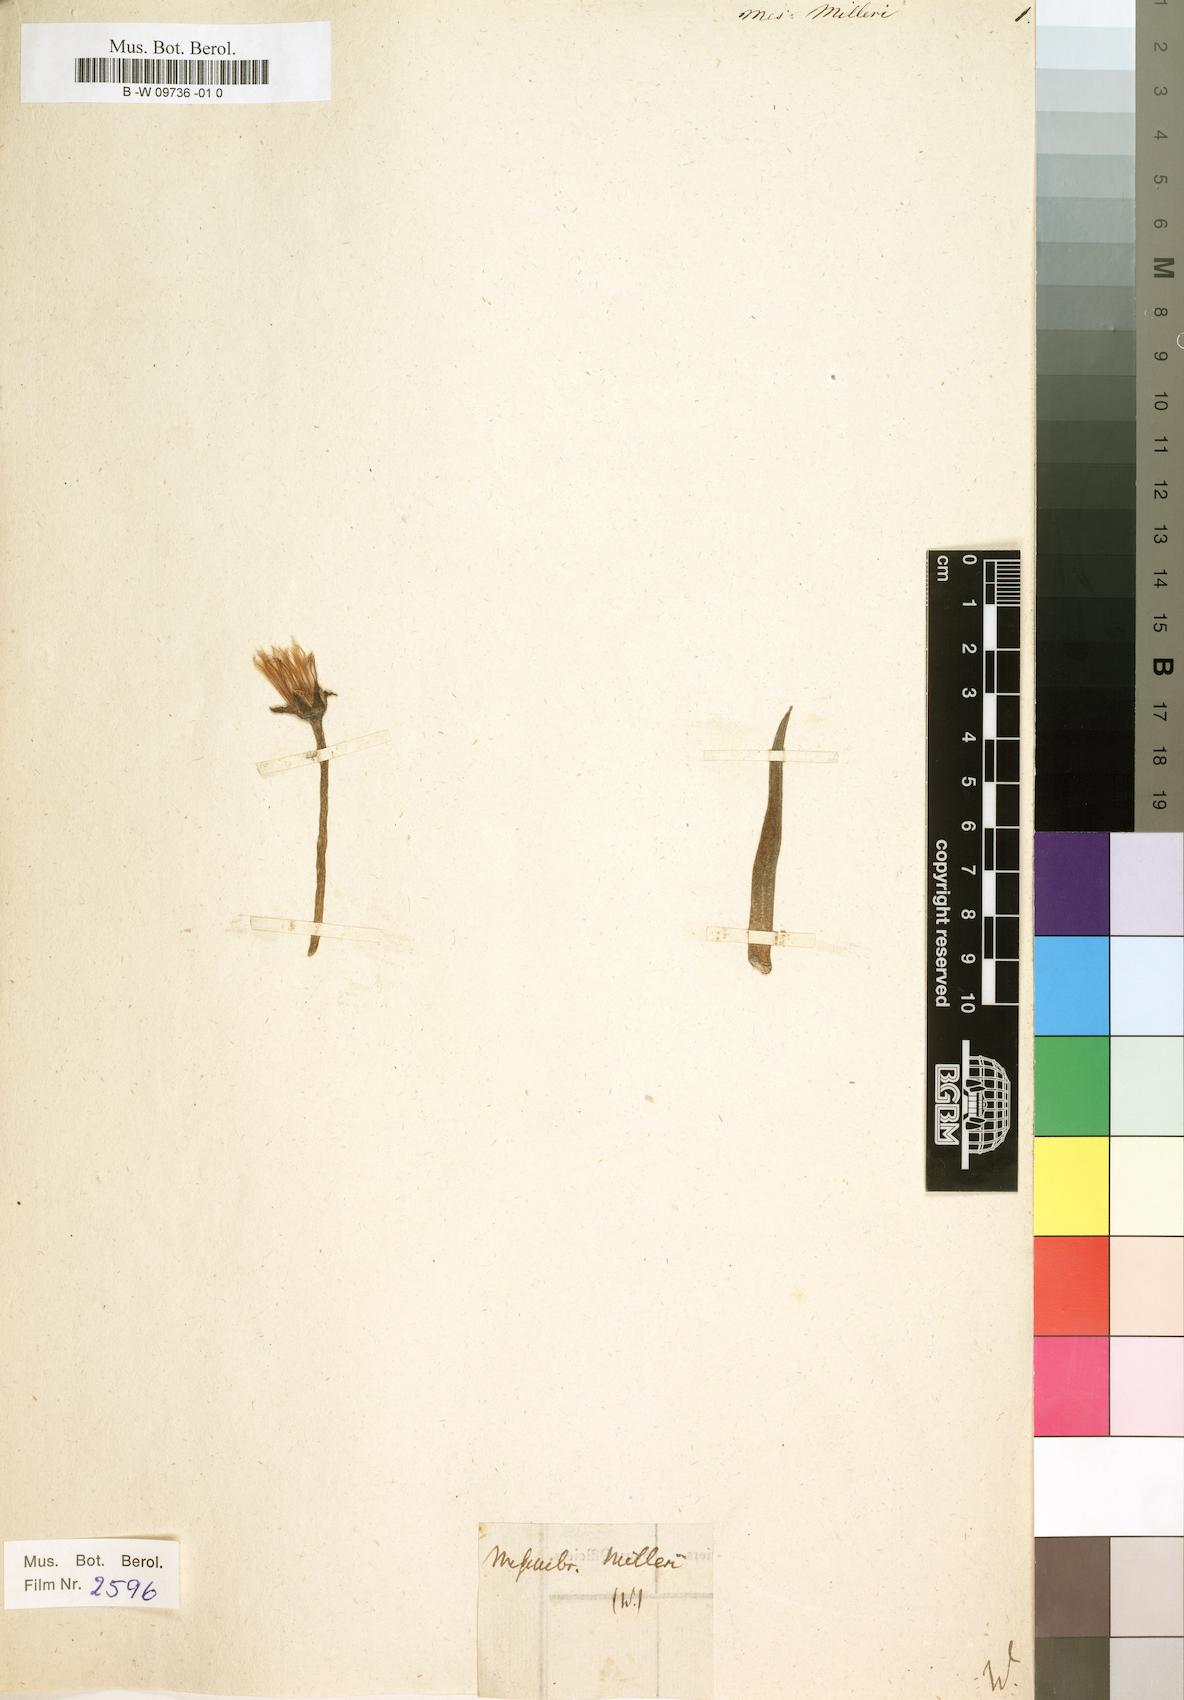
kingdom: Plantae
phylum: Tracheophyta
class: Magnoliopsida
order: Caryophyllales
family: Aizoaceae
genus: Erepsia
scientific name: Erepsia lacera
